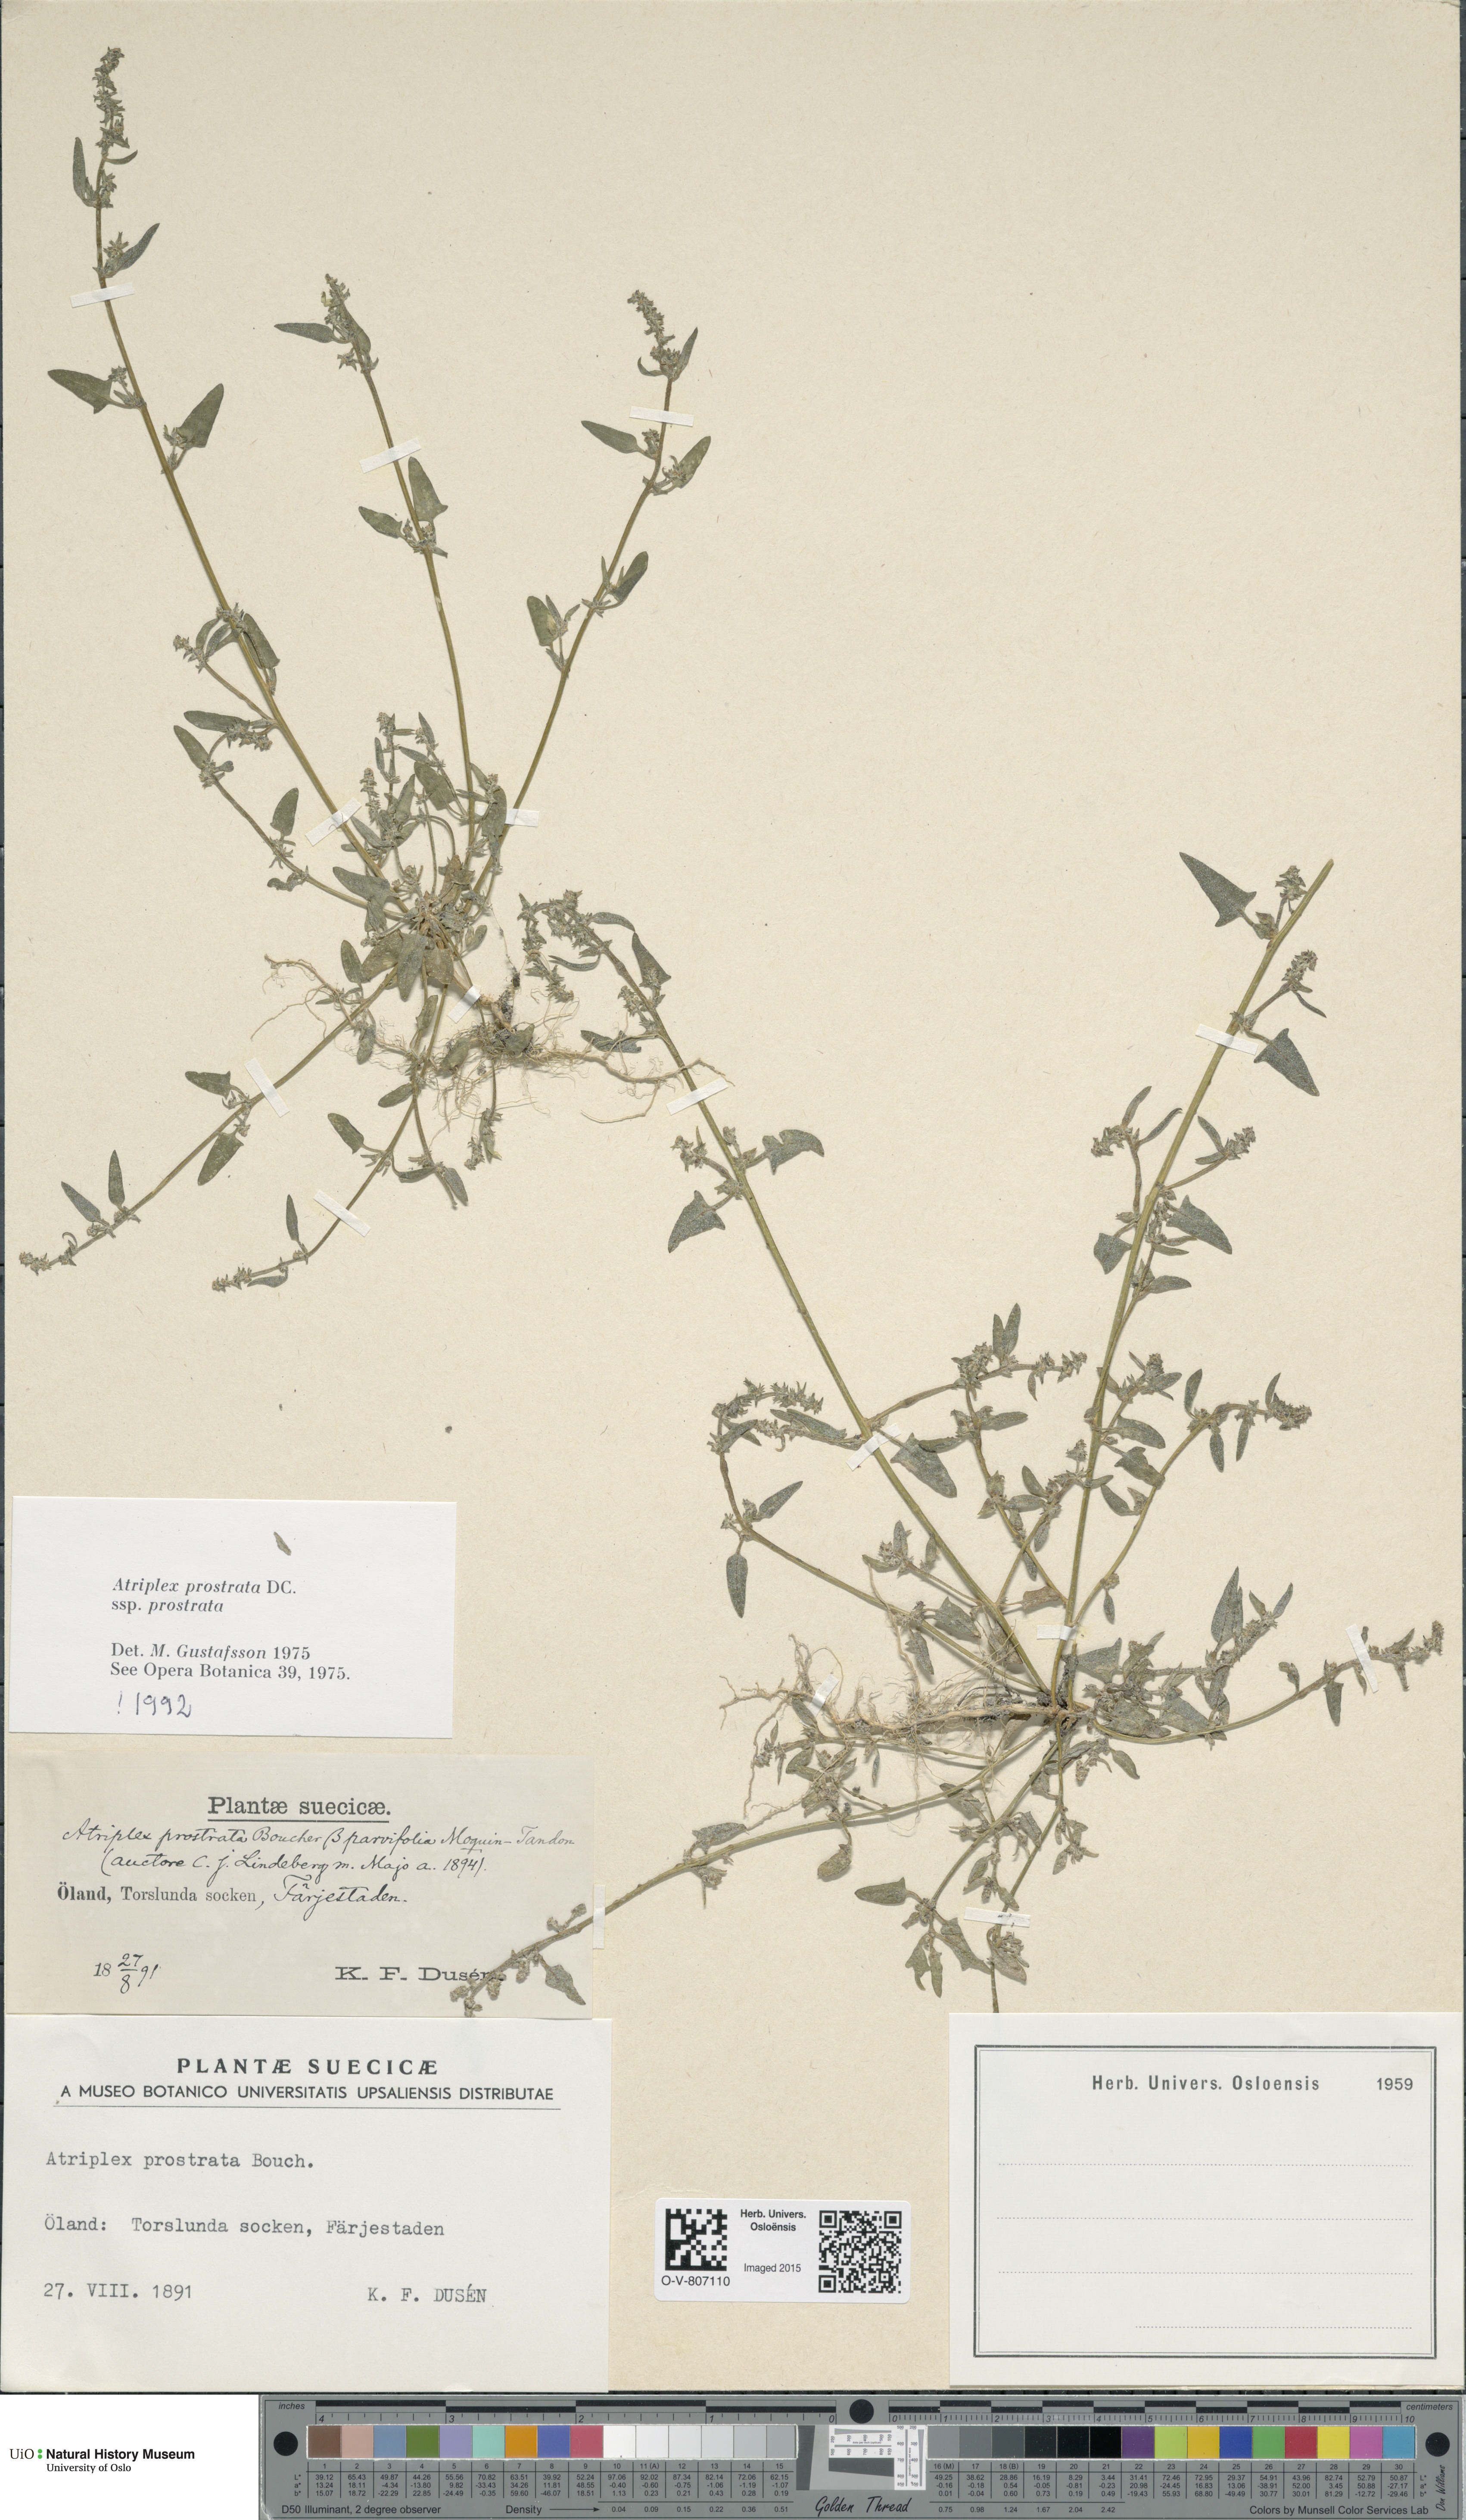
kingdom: Plantae
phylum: Tracheophyta
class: Magnoliopsida
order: Caryophyllales
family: Amaranthaceae
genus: Atriplex
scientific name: Atriplex prostrata
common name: Spear-leaved orache
